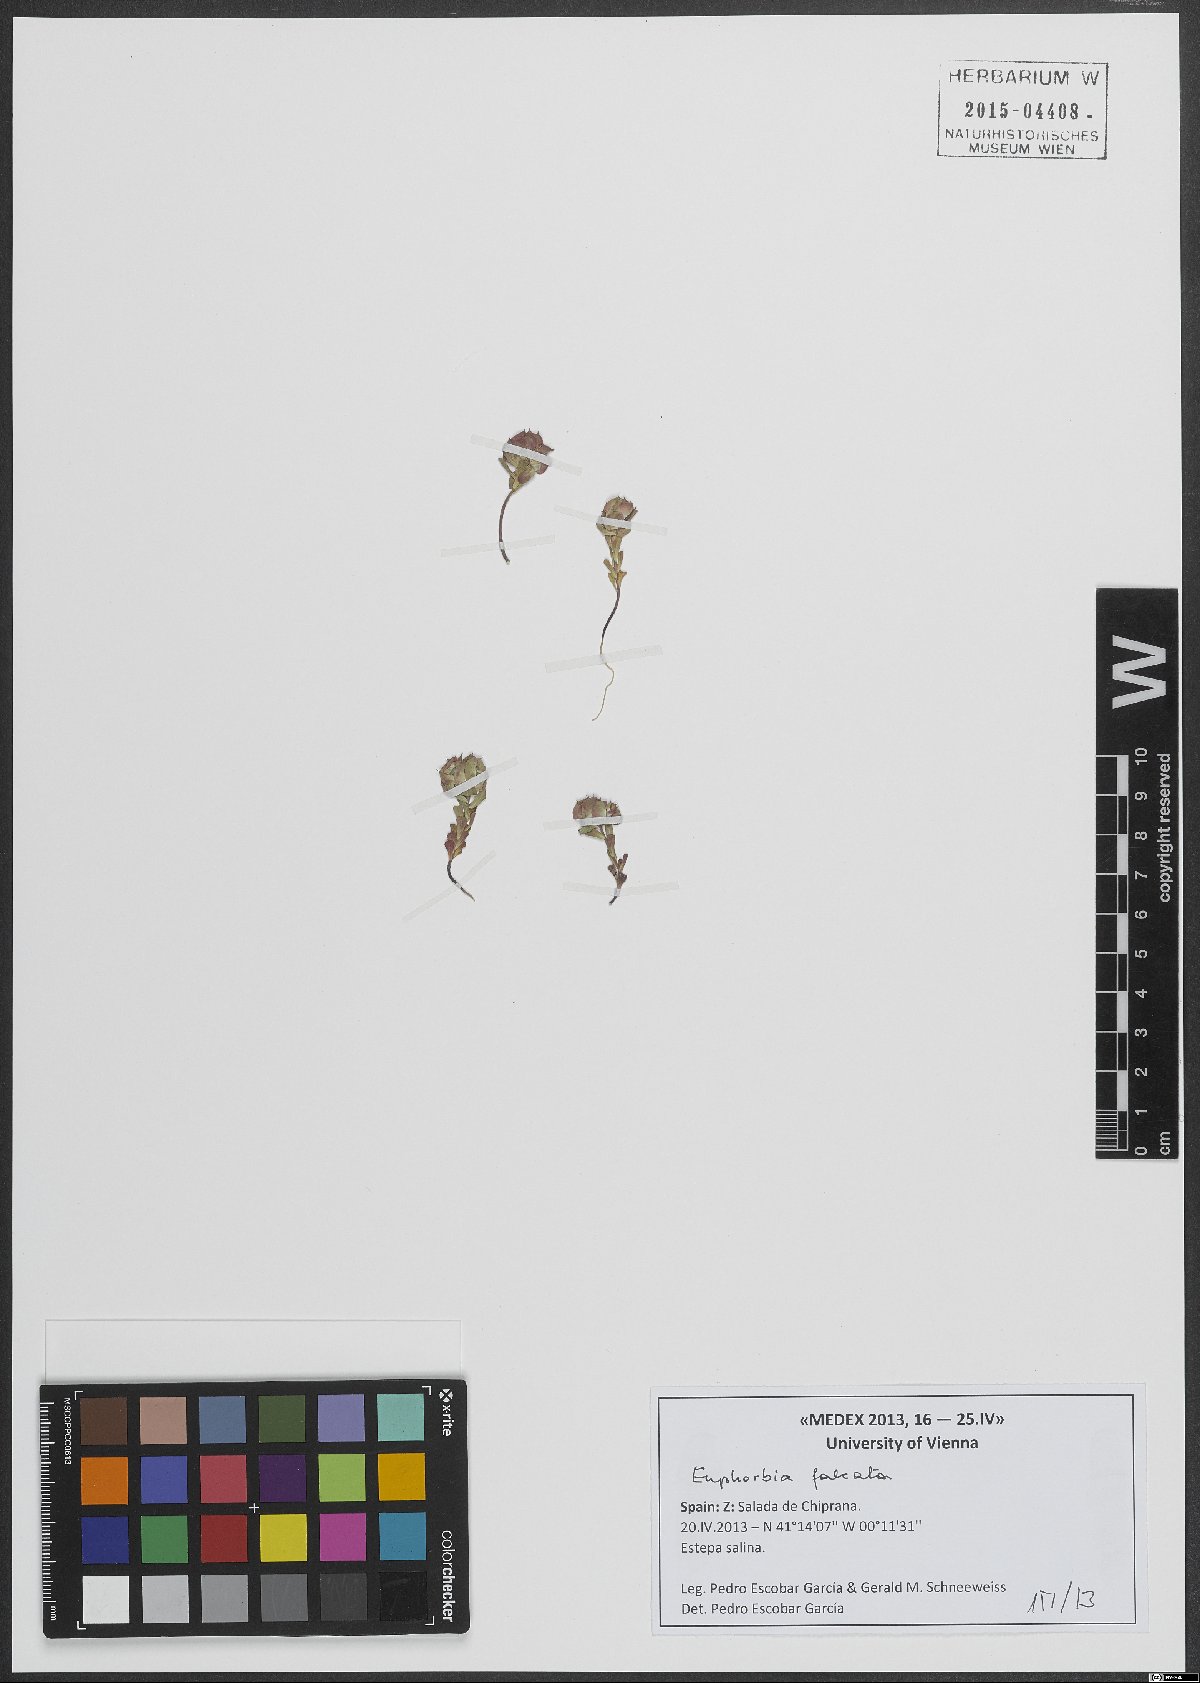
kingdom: Plantae
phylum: Tracheophyta
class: Magnoliopsida
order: Malpighiales
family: Euphorbiaceae
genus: Euphorbia
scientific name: Euphorbia falcata
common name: Sickle spurge
